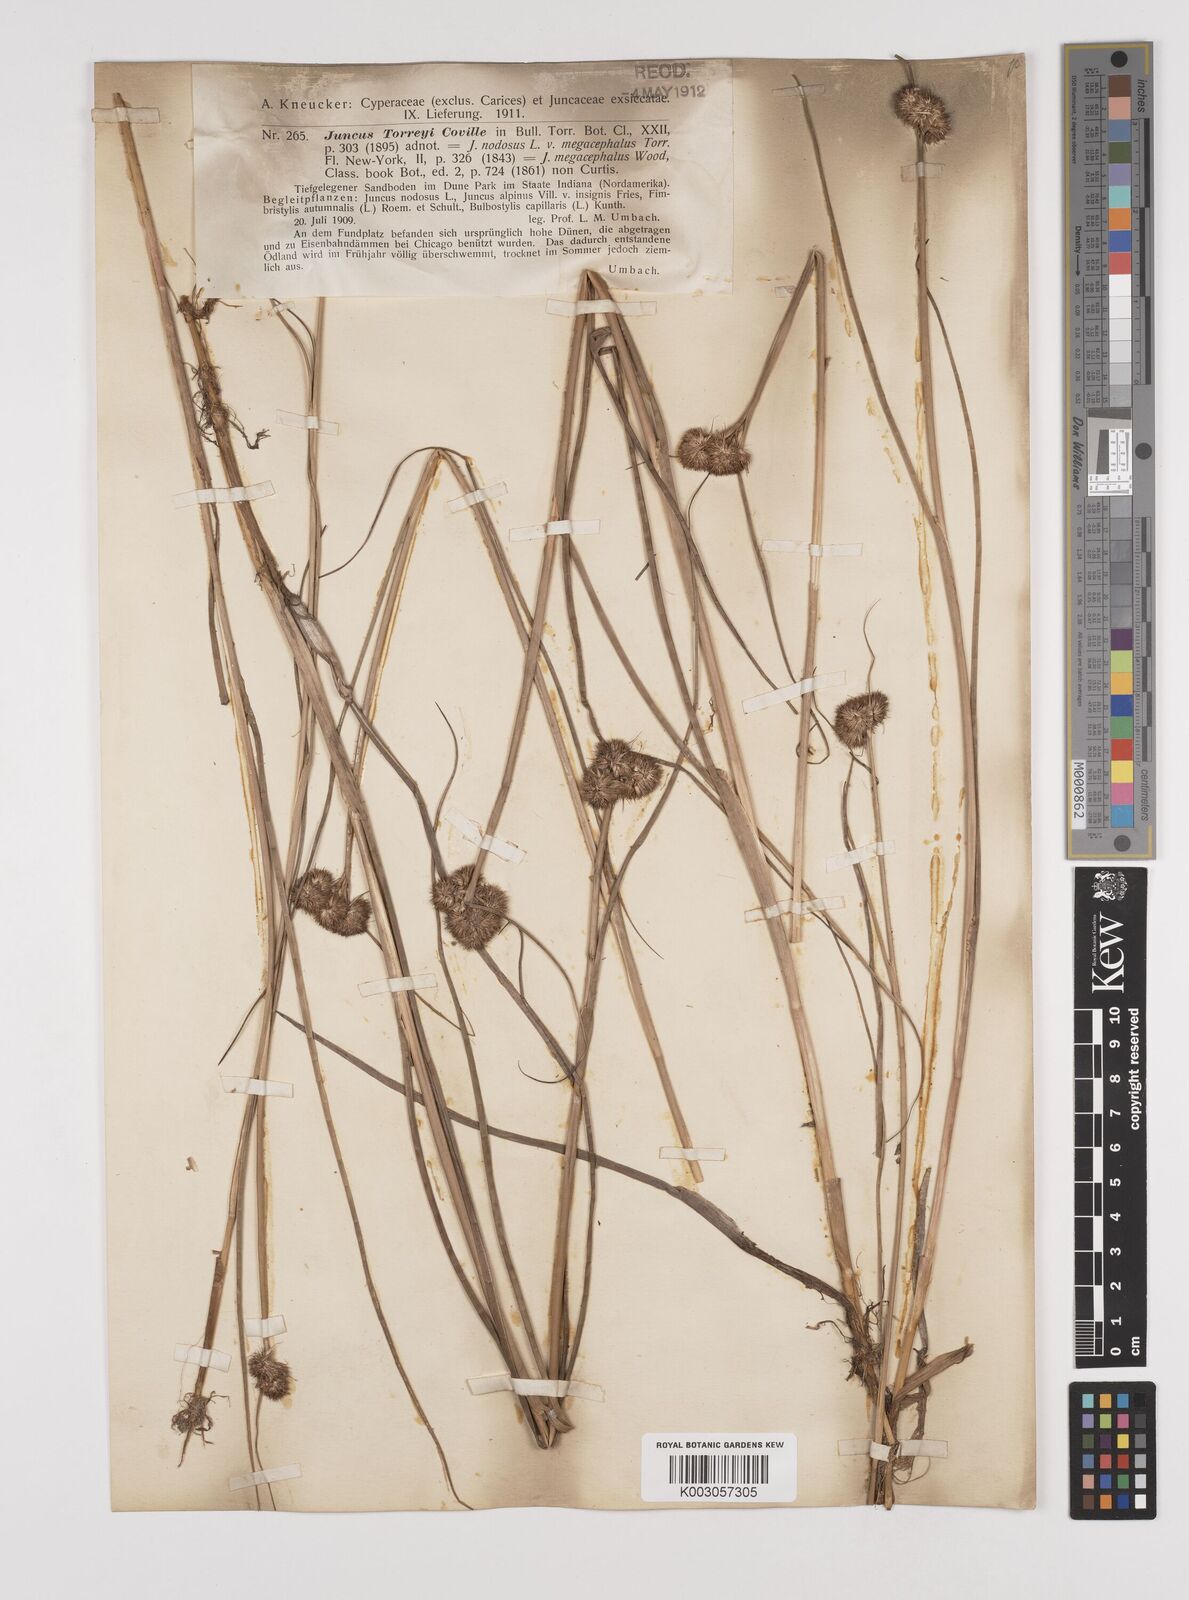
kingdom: Plantae
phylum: Tracheophyta
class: Liliopsida
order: Poales
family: Juncaceae
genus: Juncus
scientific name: Juncus nodosus
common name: Knotted rush
